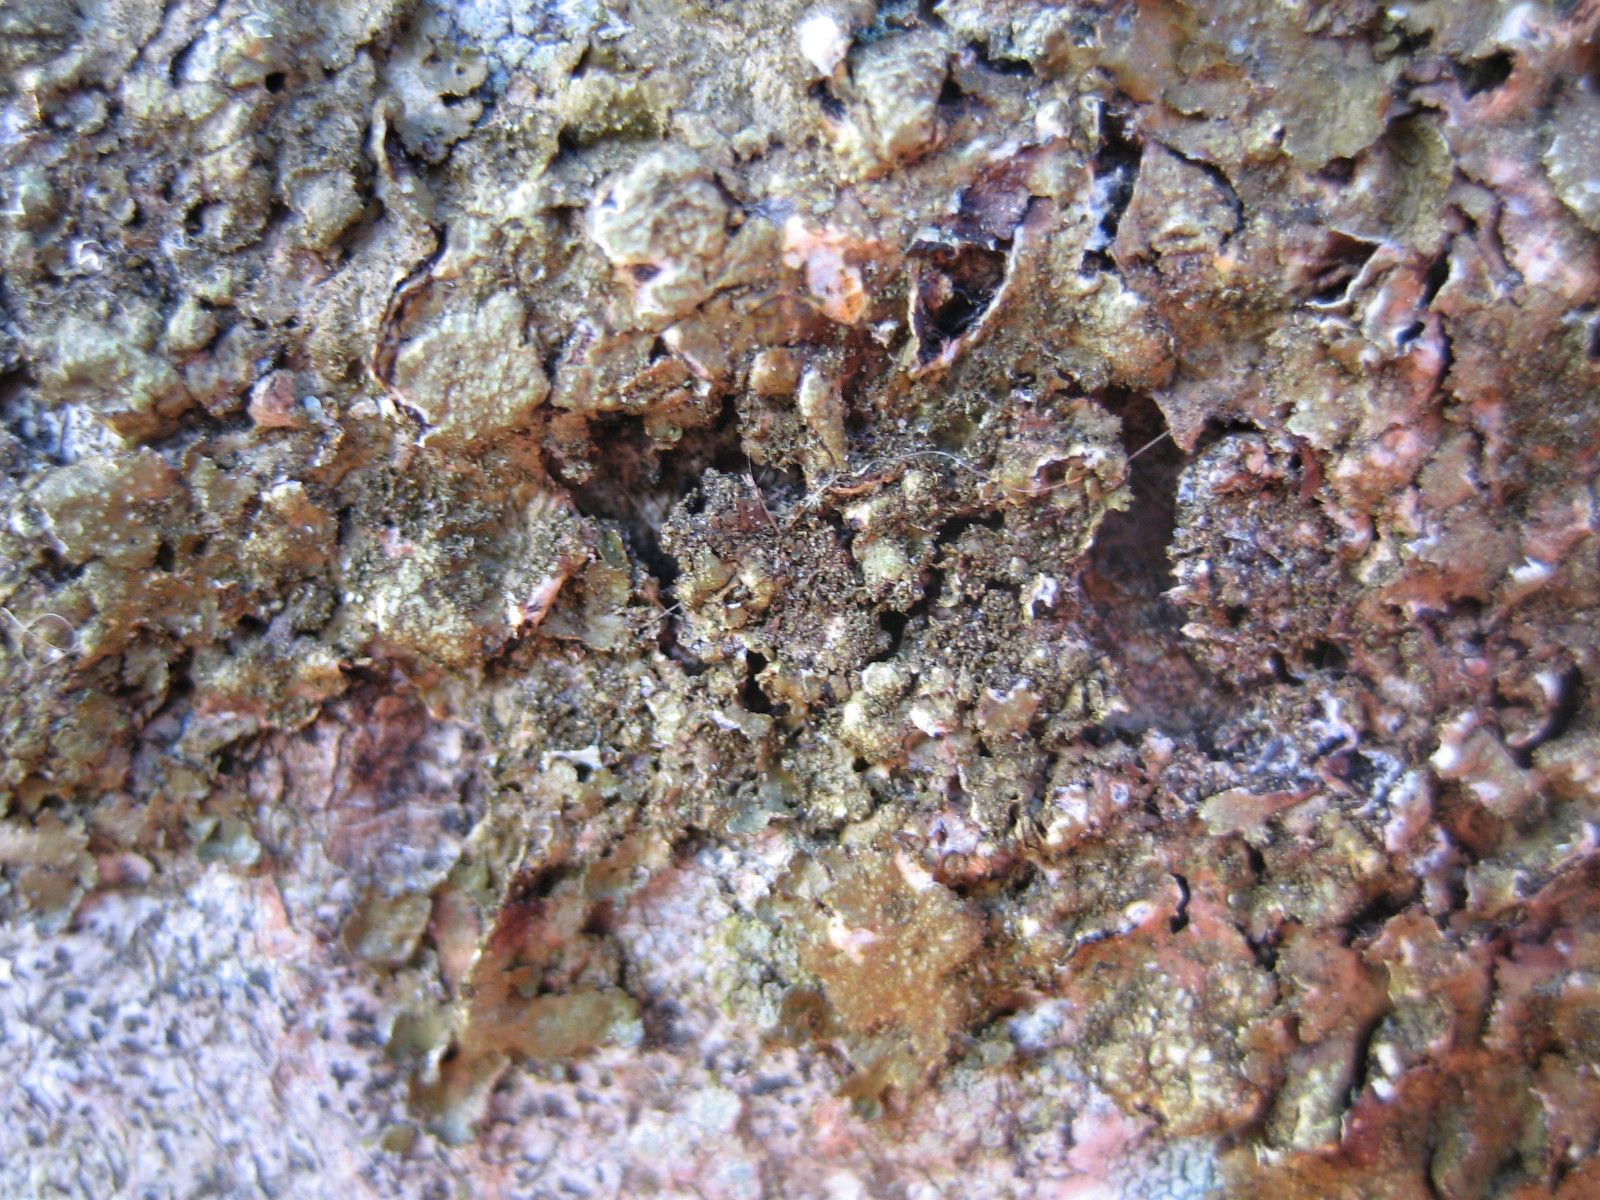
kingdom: Fungi
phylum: Ascomycota
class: Lecanoromycetes
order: Lecanorales
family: Parmeliaceae
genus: Melanelixia
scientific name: Melanelixia subaurifera
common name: guldpudret skållav
